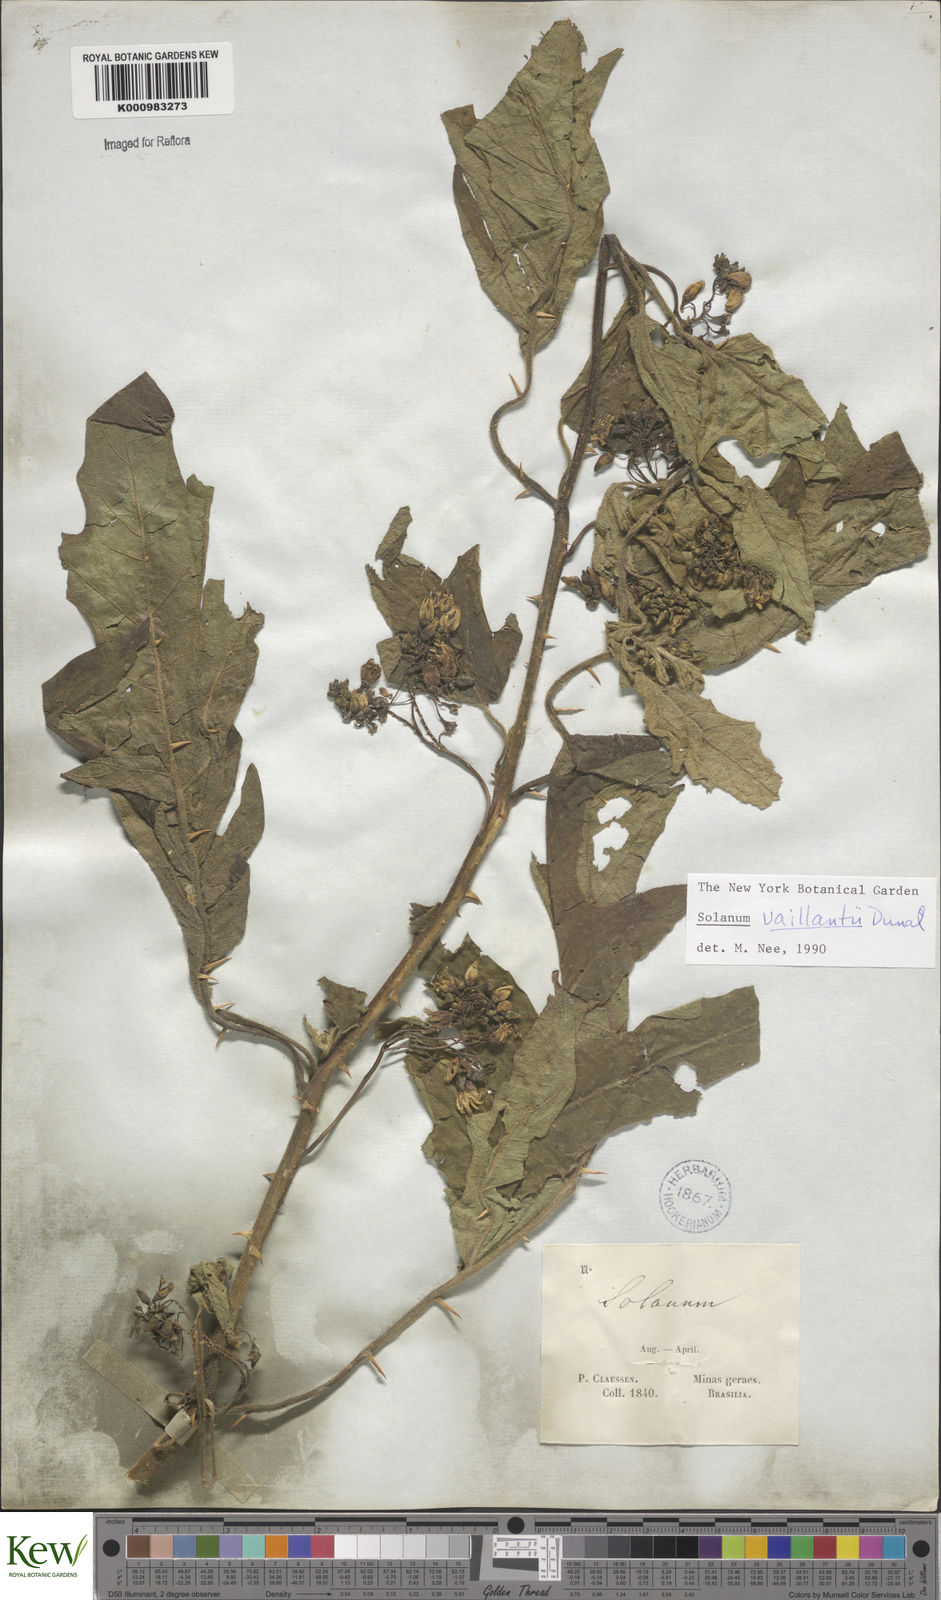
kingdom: Plantae
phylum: Tracheophyta
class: Magnoliopsida
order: Solanales
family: Solanaceae
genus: Solanum
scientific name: Solanum vaillantii
